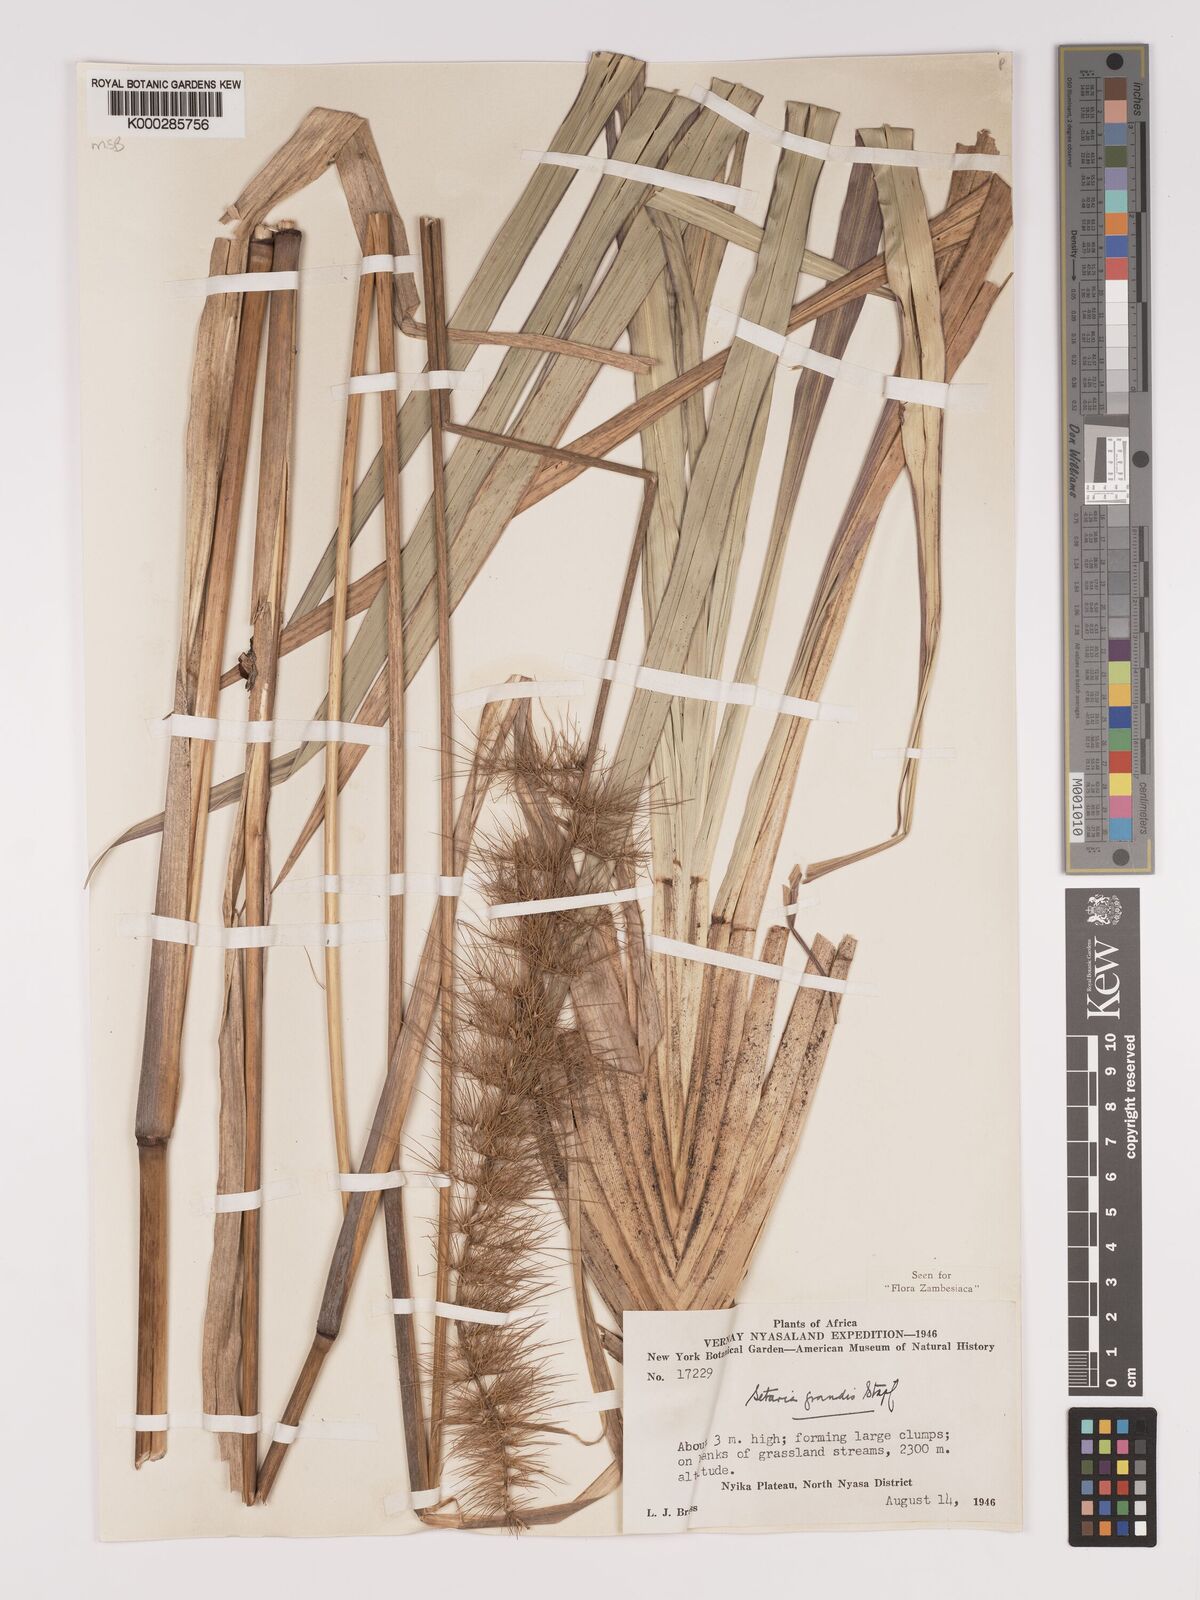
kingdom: Plantae
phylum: Tracheophyta
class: Liliopsida
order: Poales
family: Poaceae
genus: Setaria
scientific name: Setaria grandis
